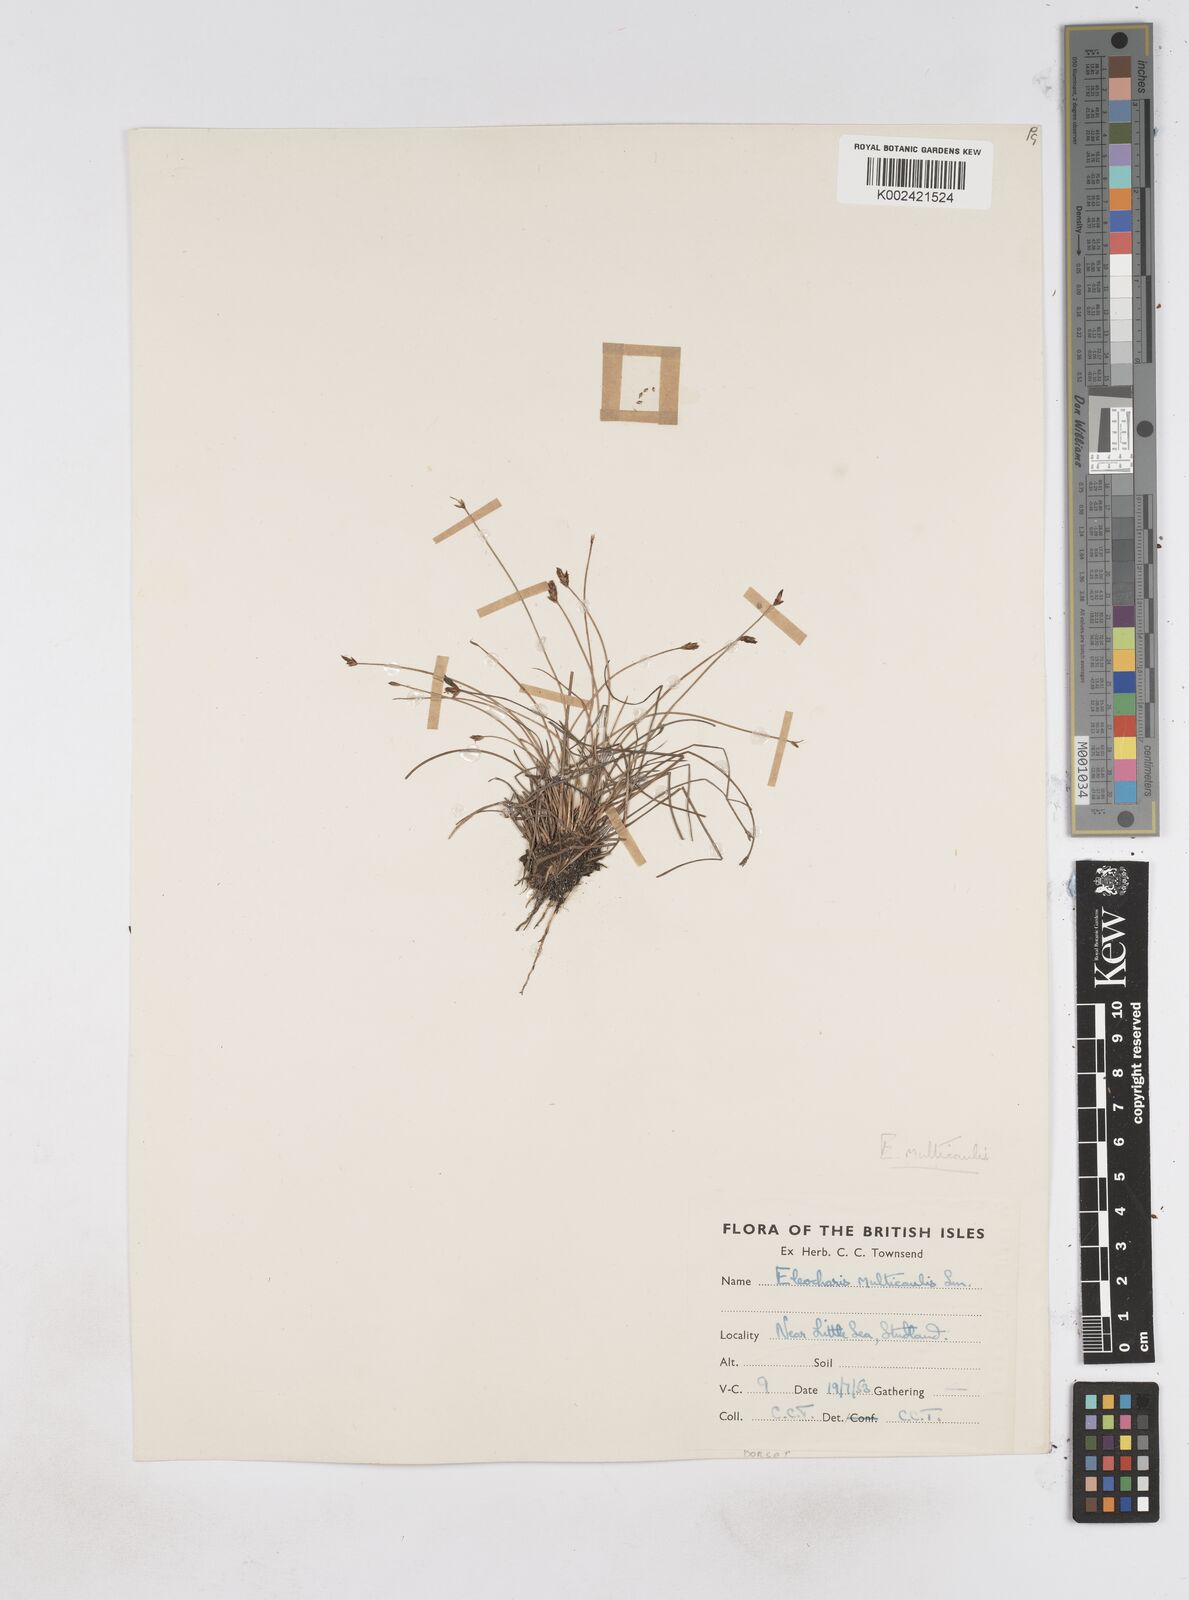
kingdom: Plantae
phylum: Tracheophyta
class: Liliopsida
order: Poales
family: Cyperaceae
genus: Eleocharis
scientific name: Eleocharis multicaulis
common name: Many-stalked spike-rush
